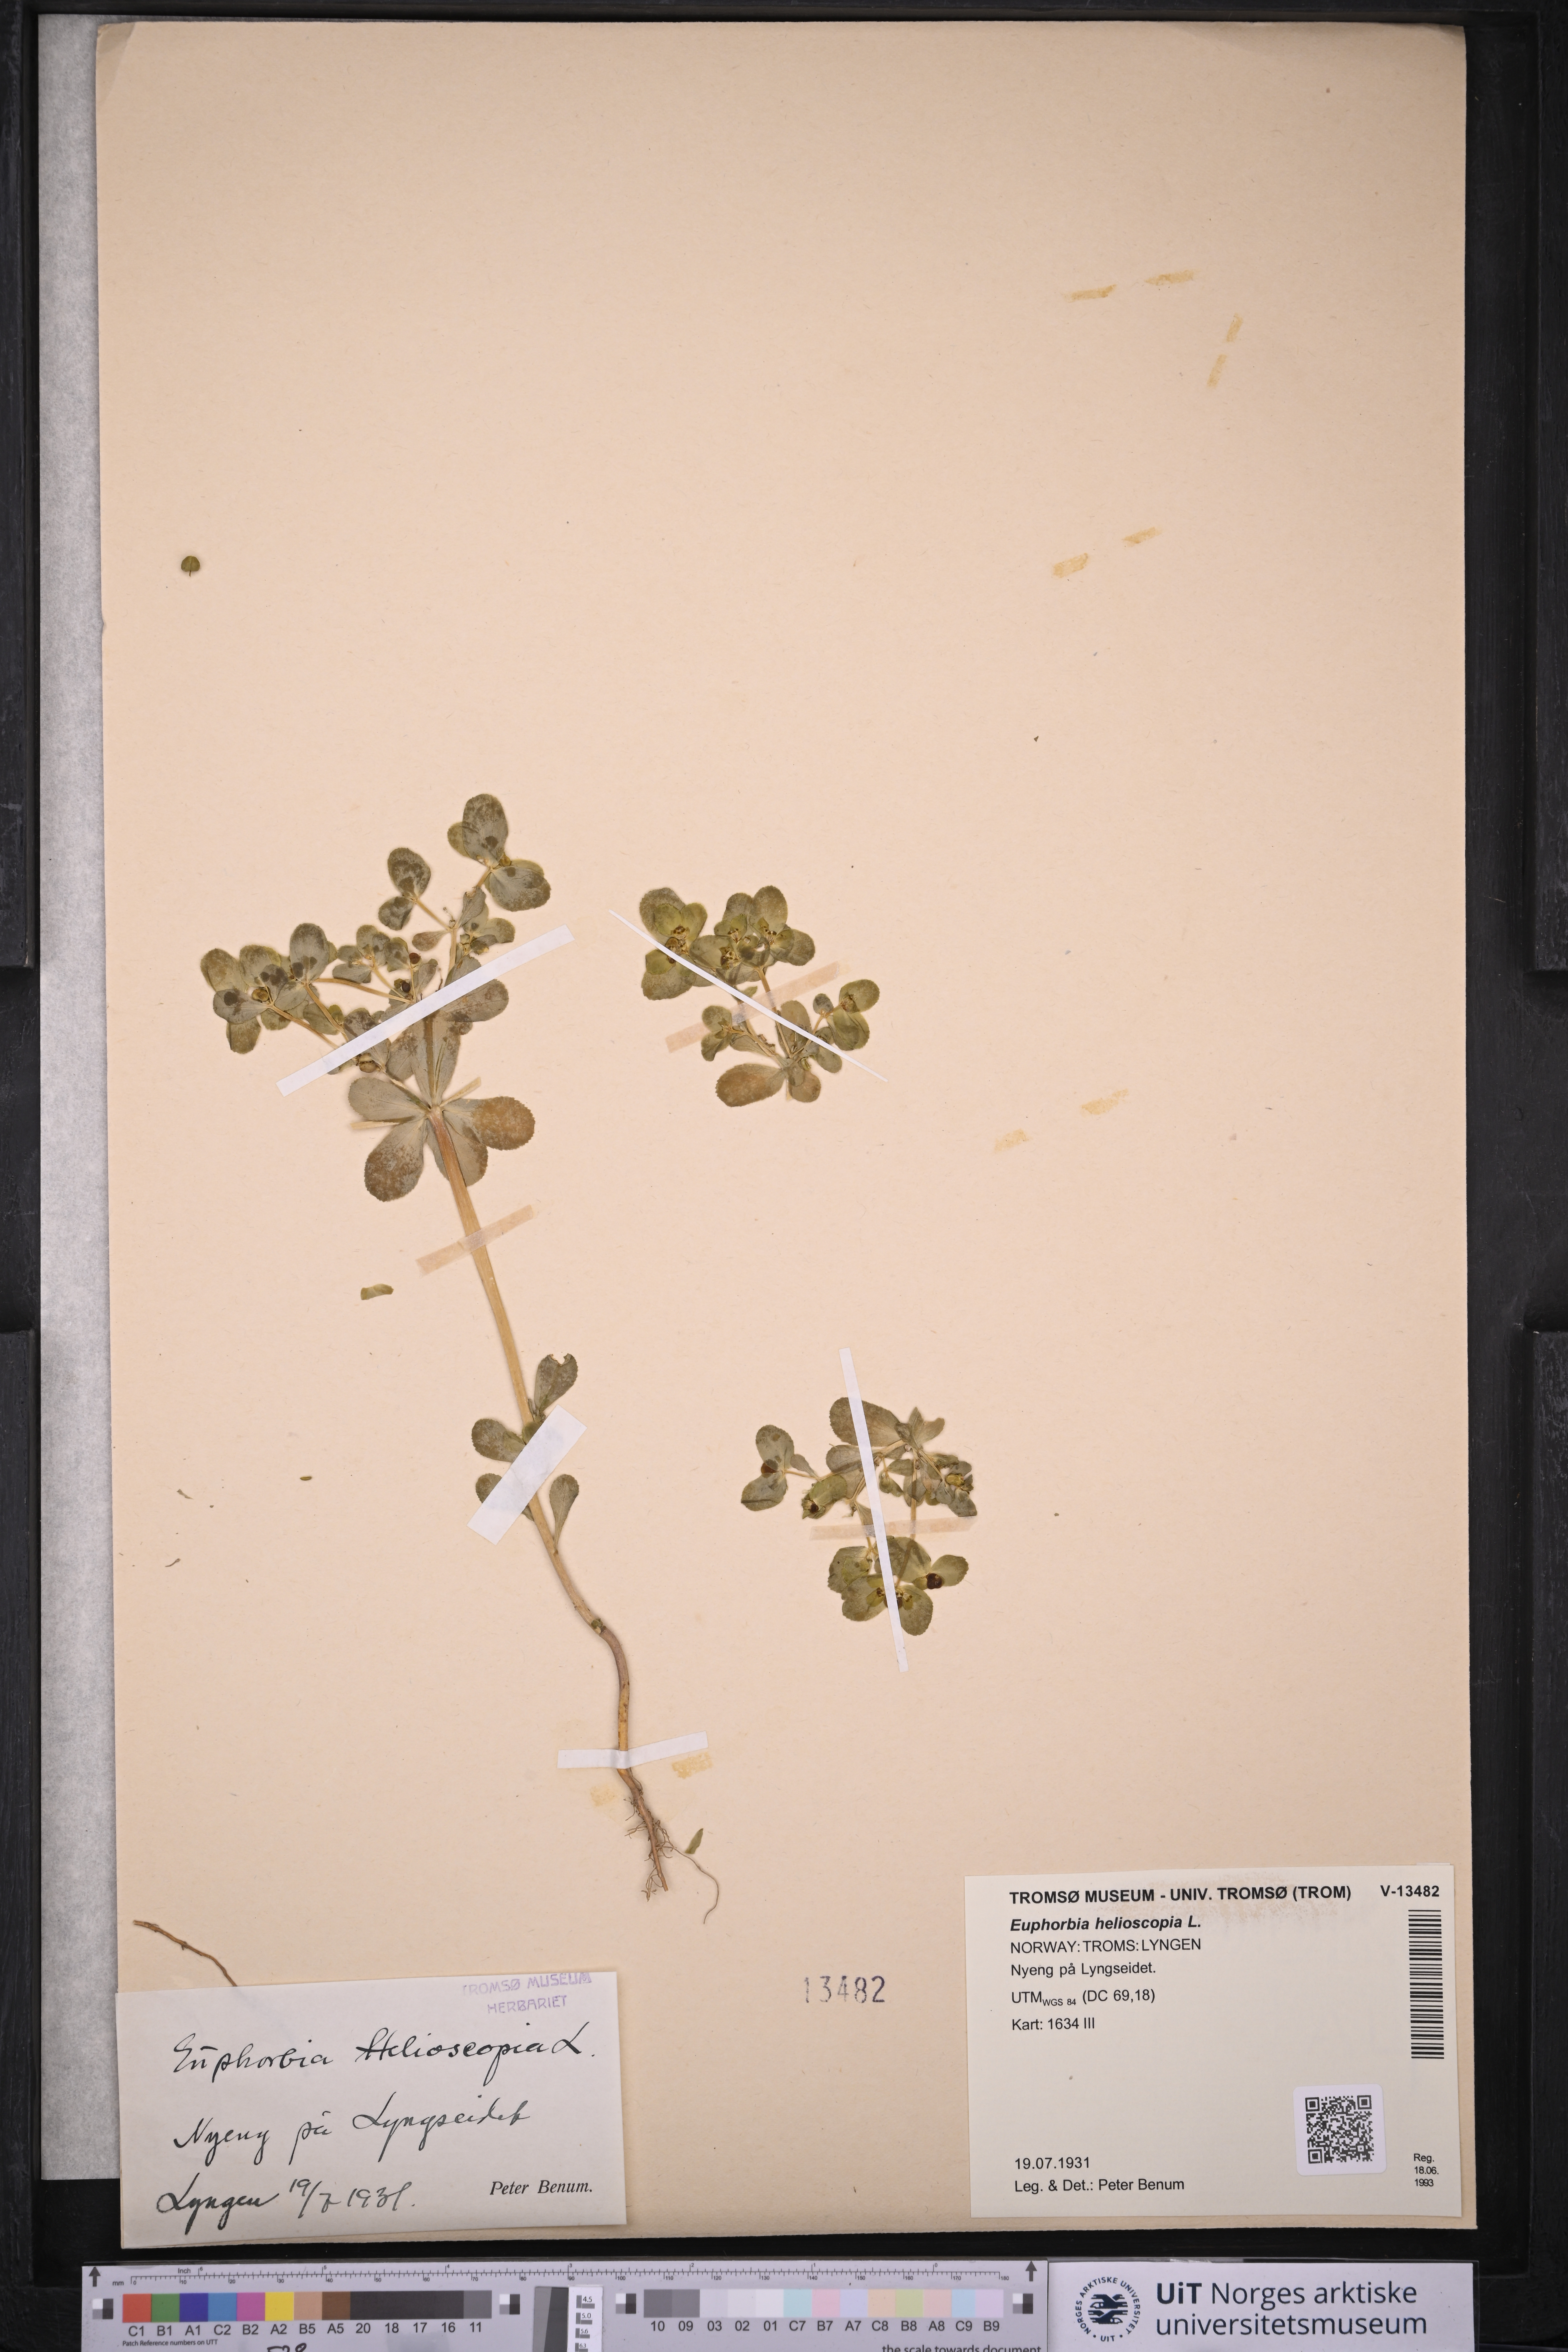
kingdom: Plantae
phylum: Tracheophyta
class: Magnoliopsida
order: Malpighiales
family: Euphorbiaceae
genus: Euphorbia
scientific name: Euphorbia helioscopia
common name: Sun spurge
